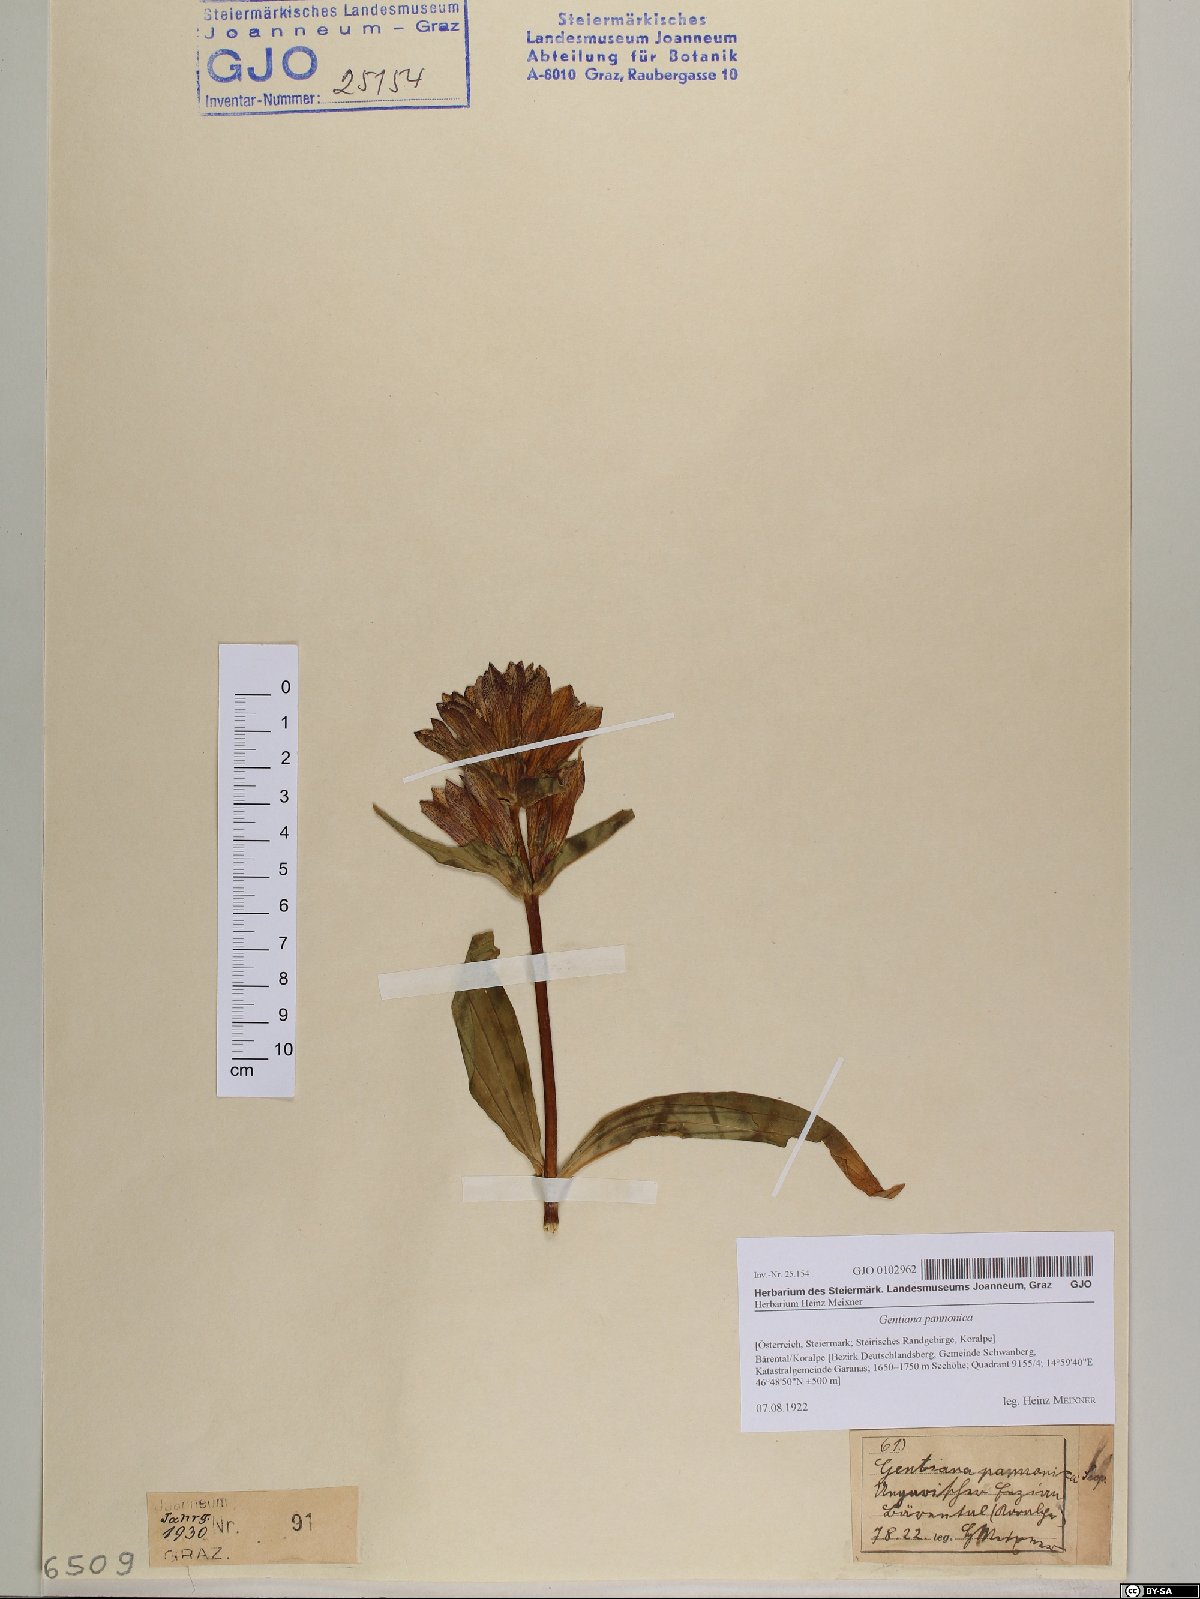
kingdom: Plantae
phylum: Tracheophyta
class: Magnoliopsida
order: Gentianales
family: Gentianaceae
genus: Gentiana
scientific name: Gentiana pannonica
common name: Hungarian gentian
